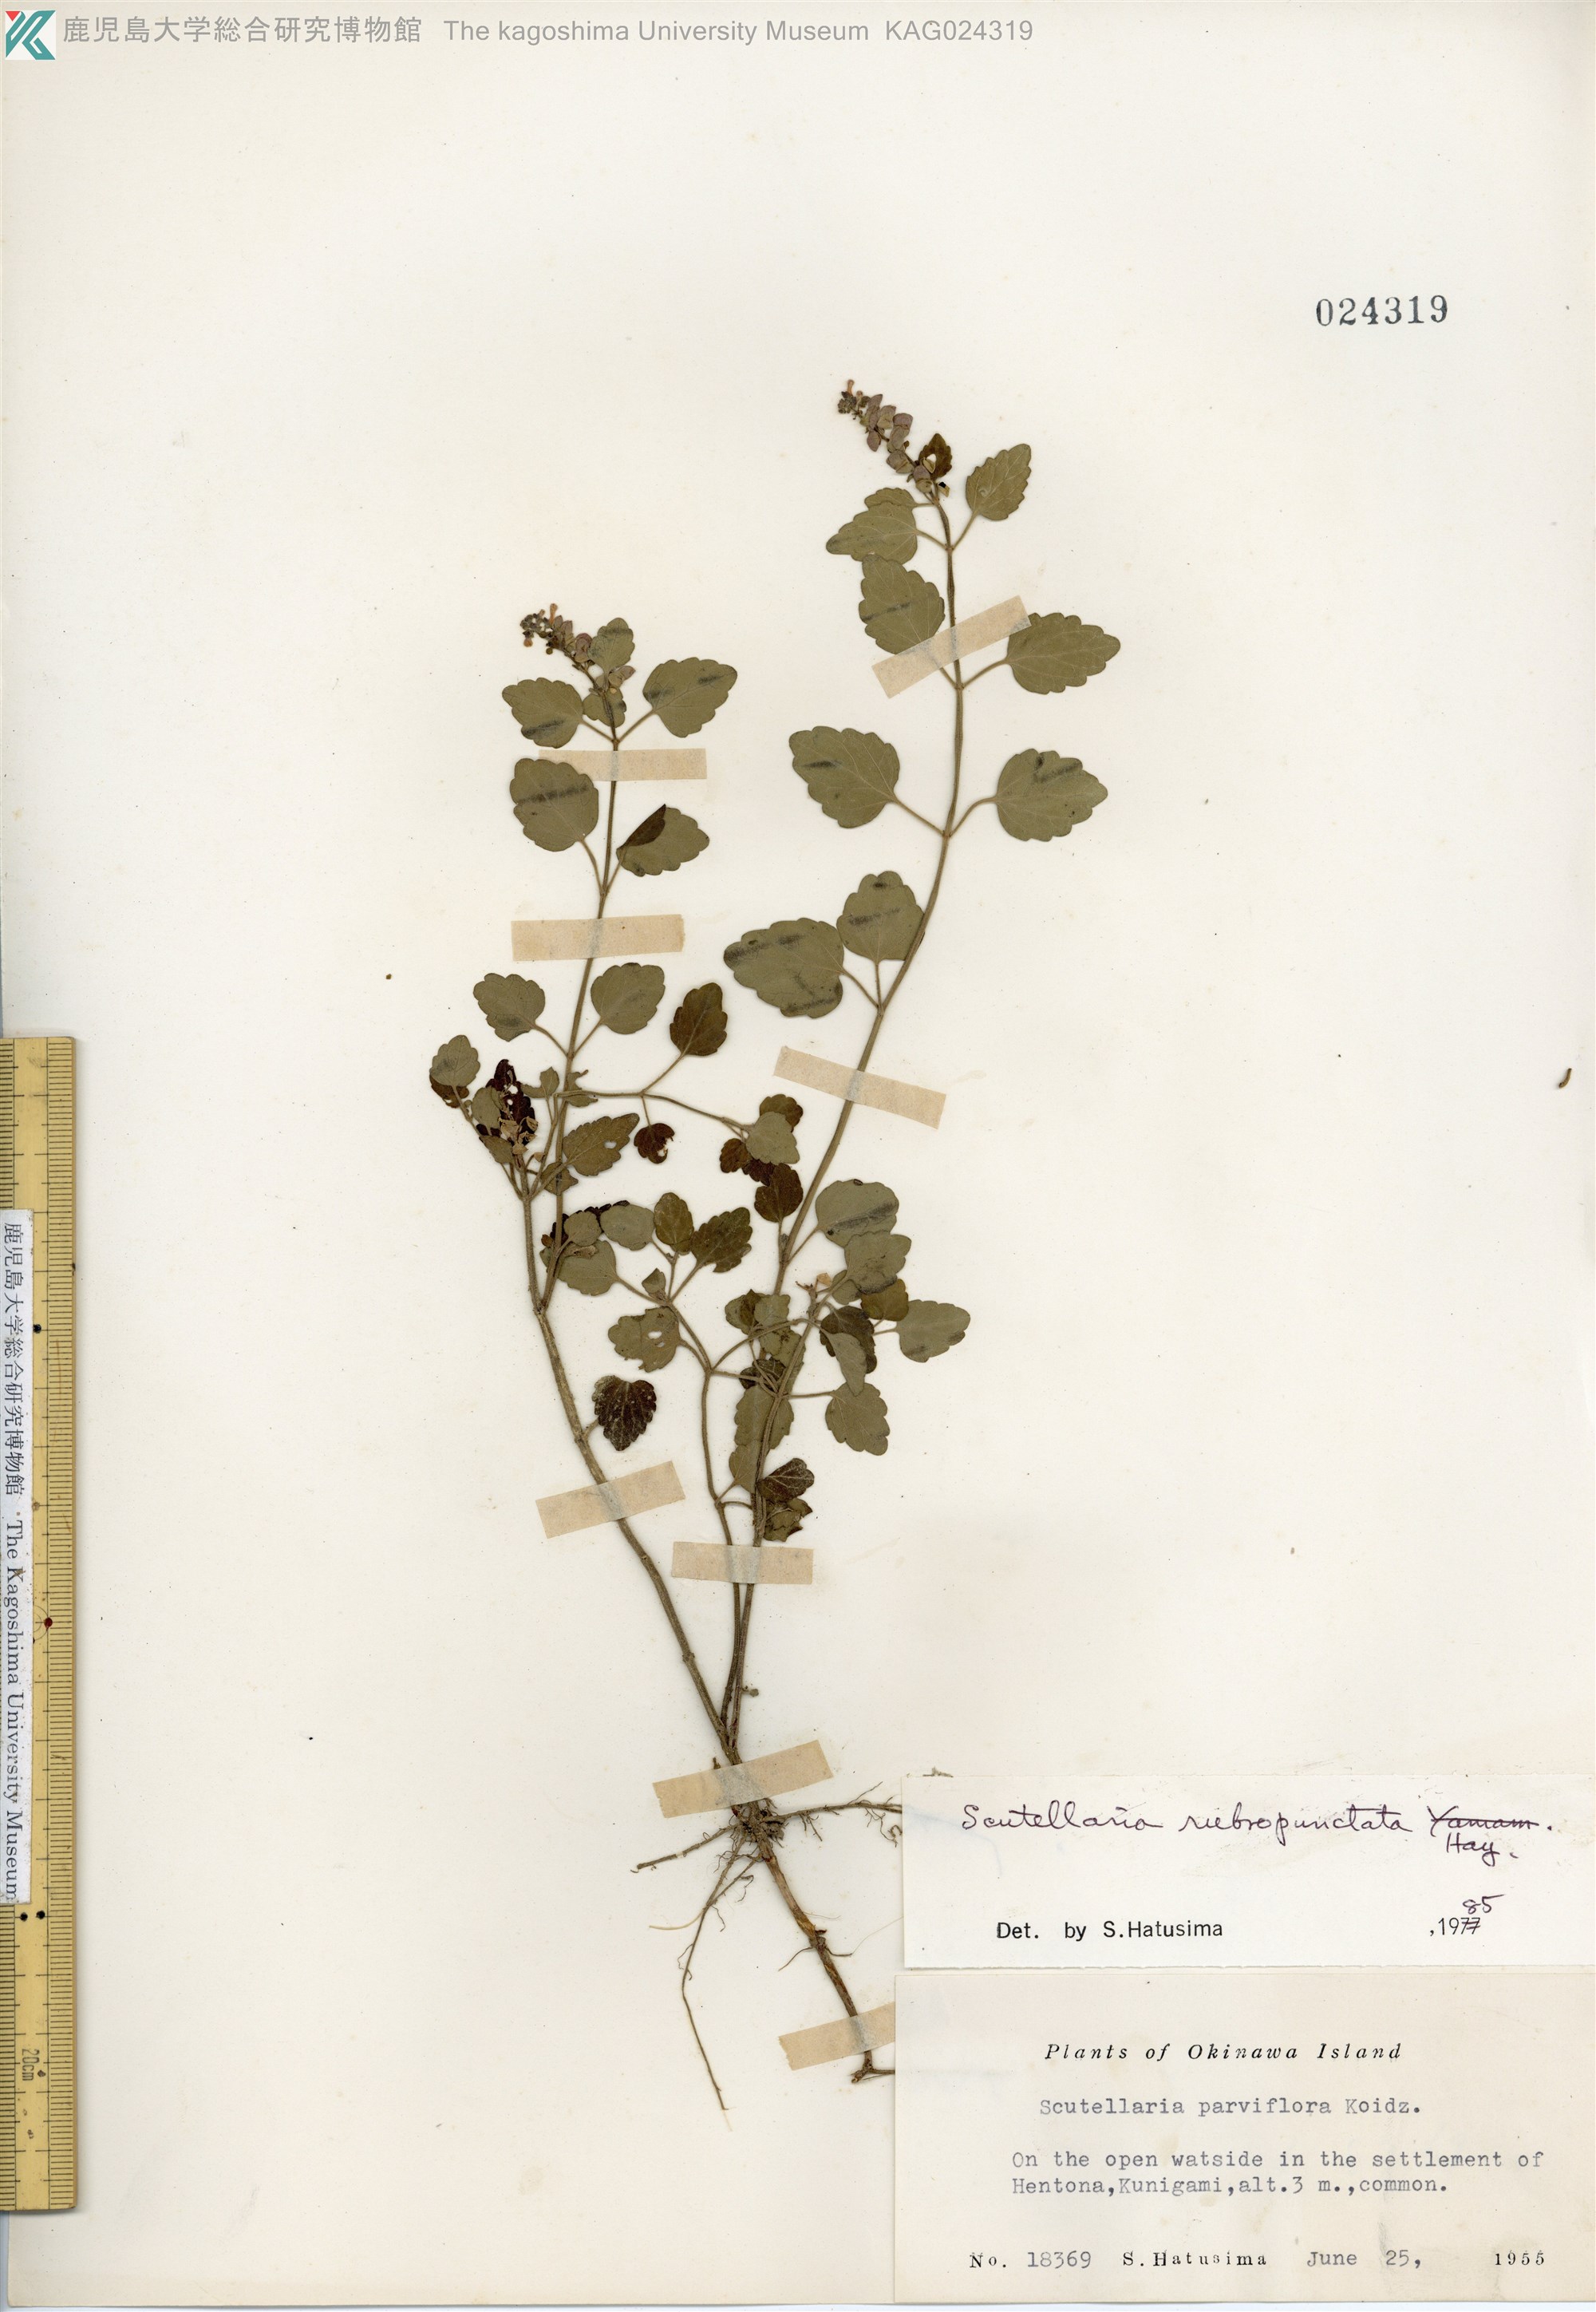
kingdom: Plantae
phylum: Tracheophyta
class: Magnoliopsida
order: Lamiales
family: Lamiaceae
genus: Scutellaria
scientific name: Scutellaria rubropunctata
